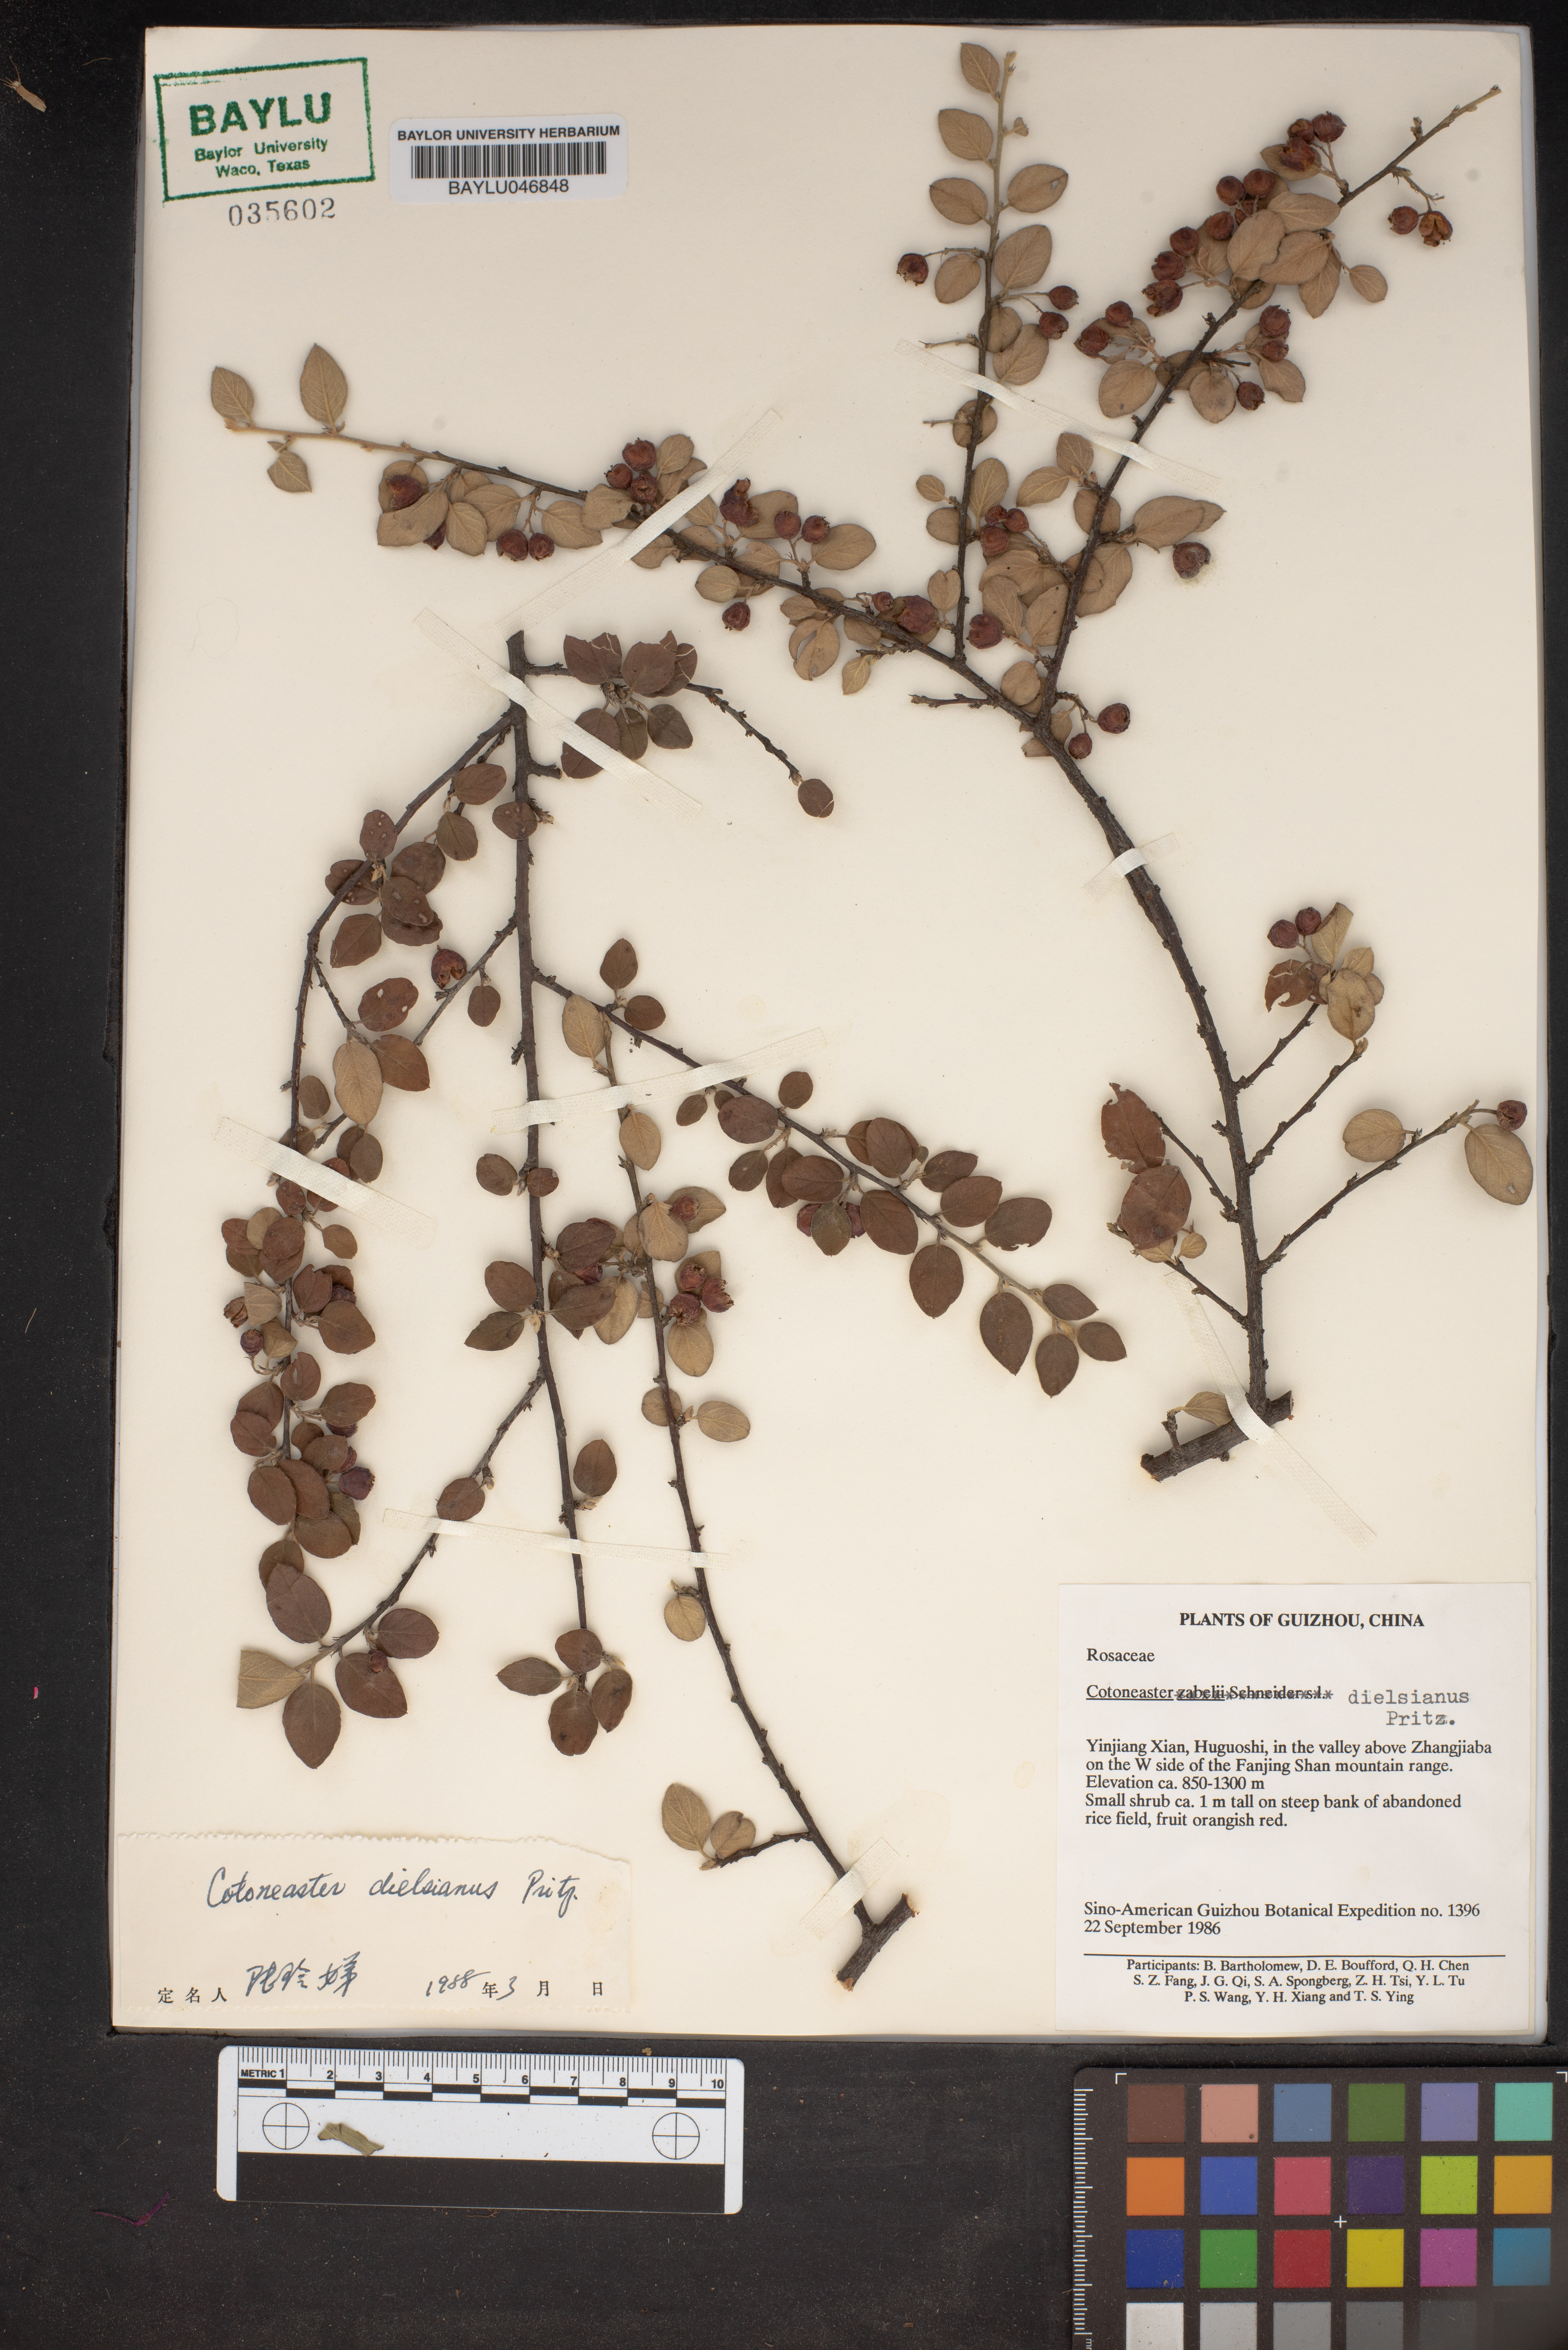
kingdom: Plantae
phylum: Tracheophyta
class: Magnoliopsida
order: Rosales
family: Rosaceae
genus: Cotoneaster
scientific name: Cotoneaster dielsianus
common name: Diels's cotoneaster
